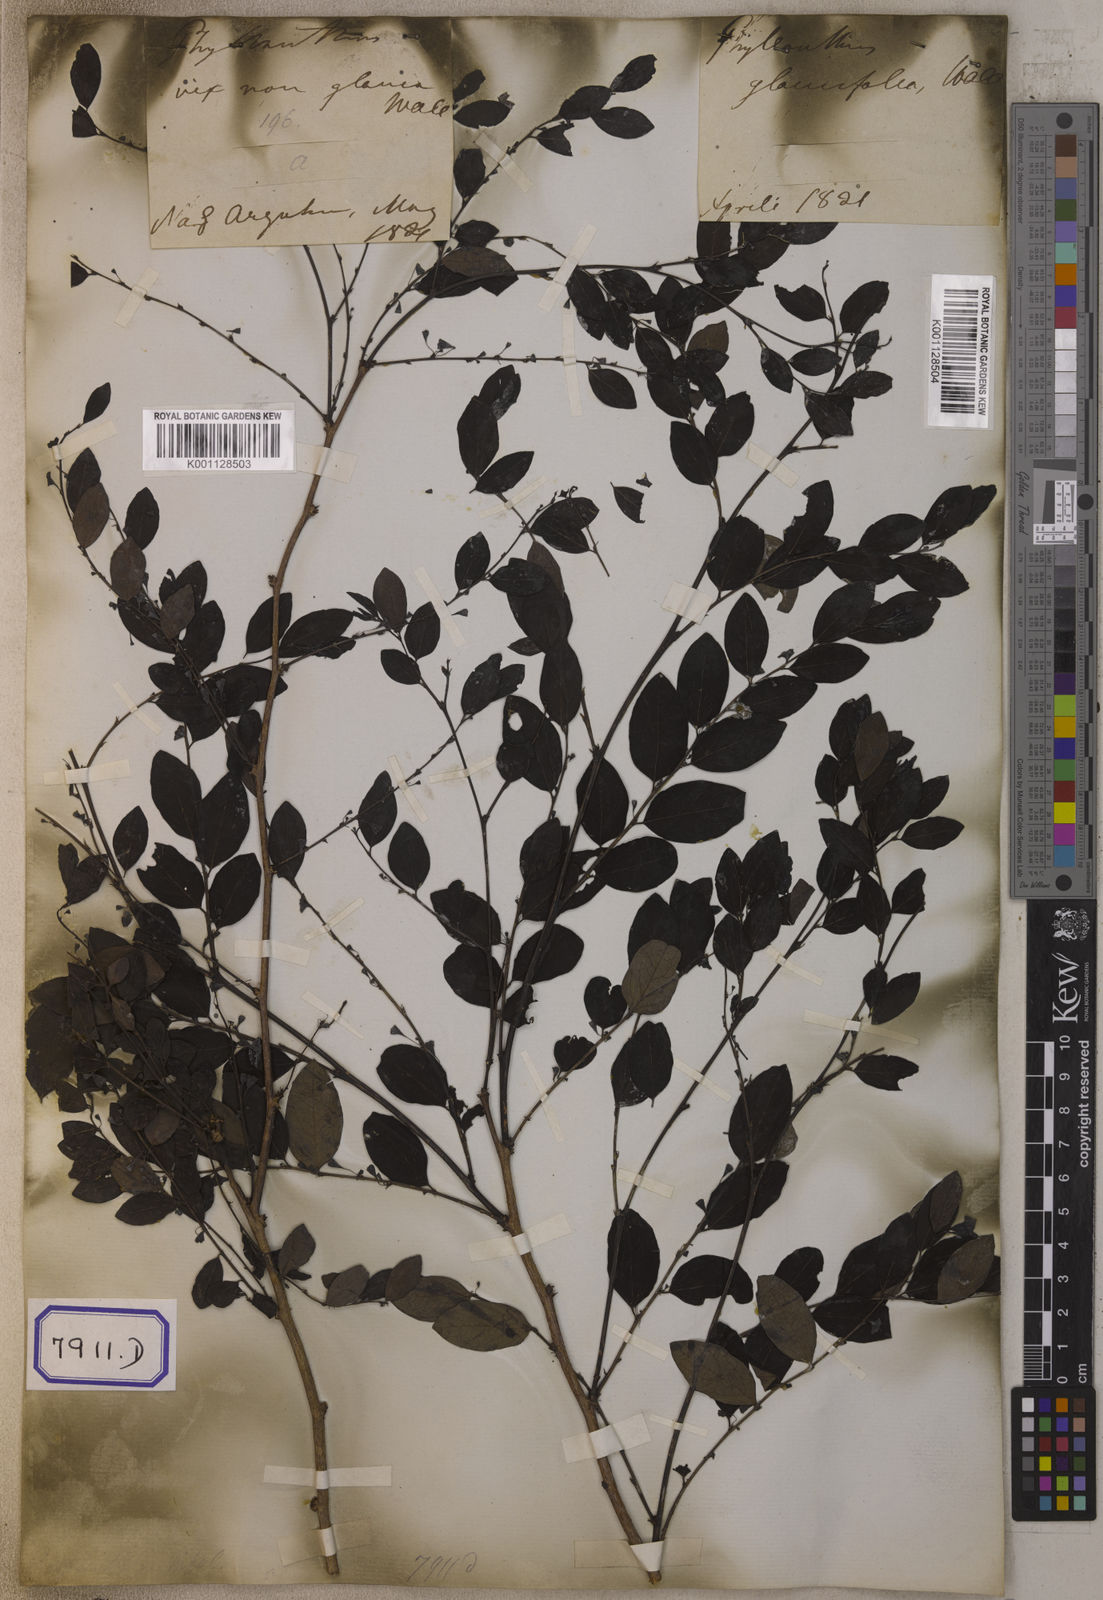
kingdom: Plantae
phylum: Tracheophyta
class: Magnoliopsida
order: Malpighiales
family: Euphorbiaceae
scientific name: Euphorbiaceae
